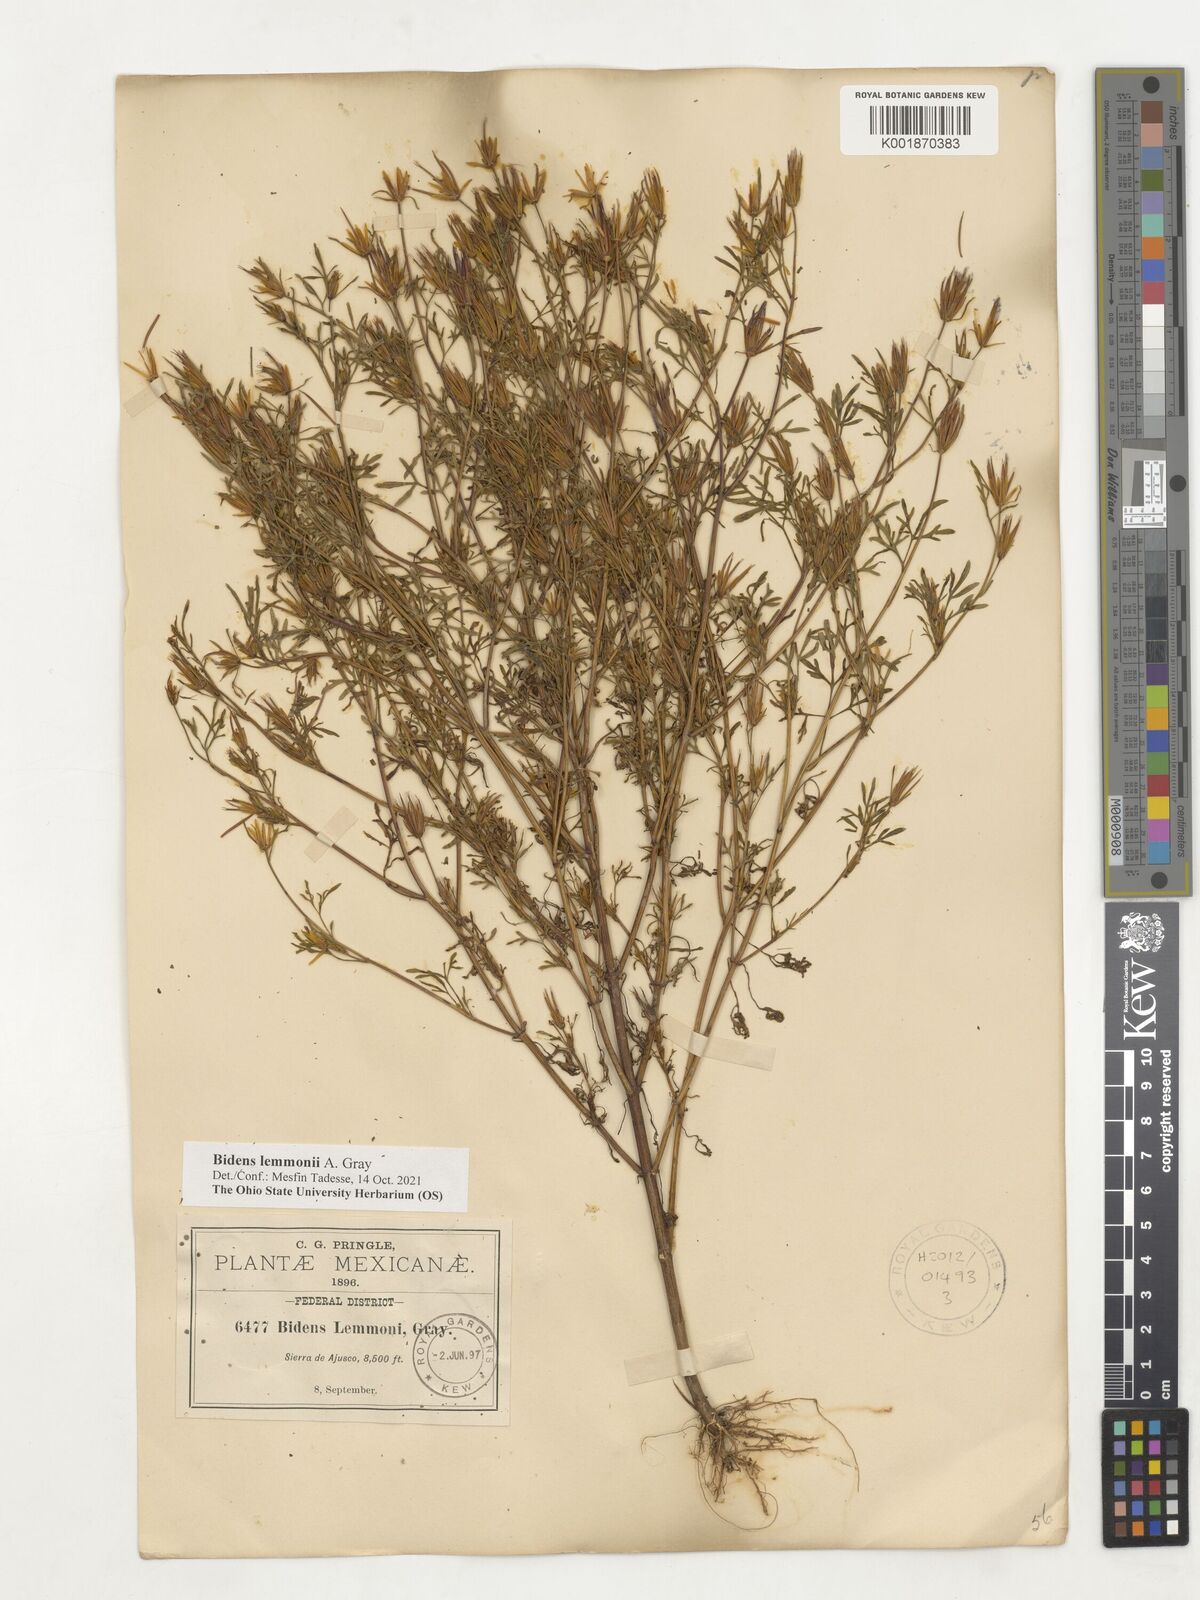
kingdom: Plantae
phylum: Tracheophyta
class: Magnoliopsida
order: Asterales
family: Asteraceae
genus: Bidens
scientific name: Bidens lemmonii
